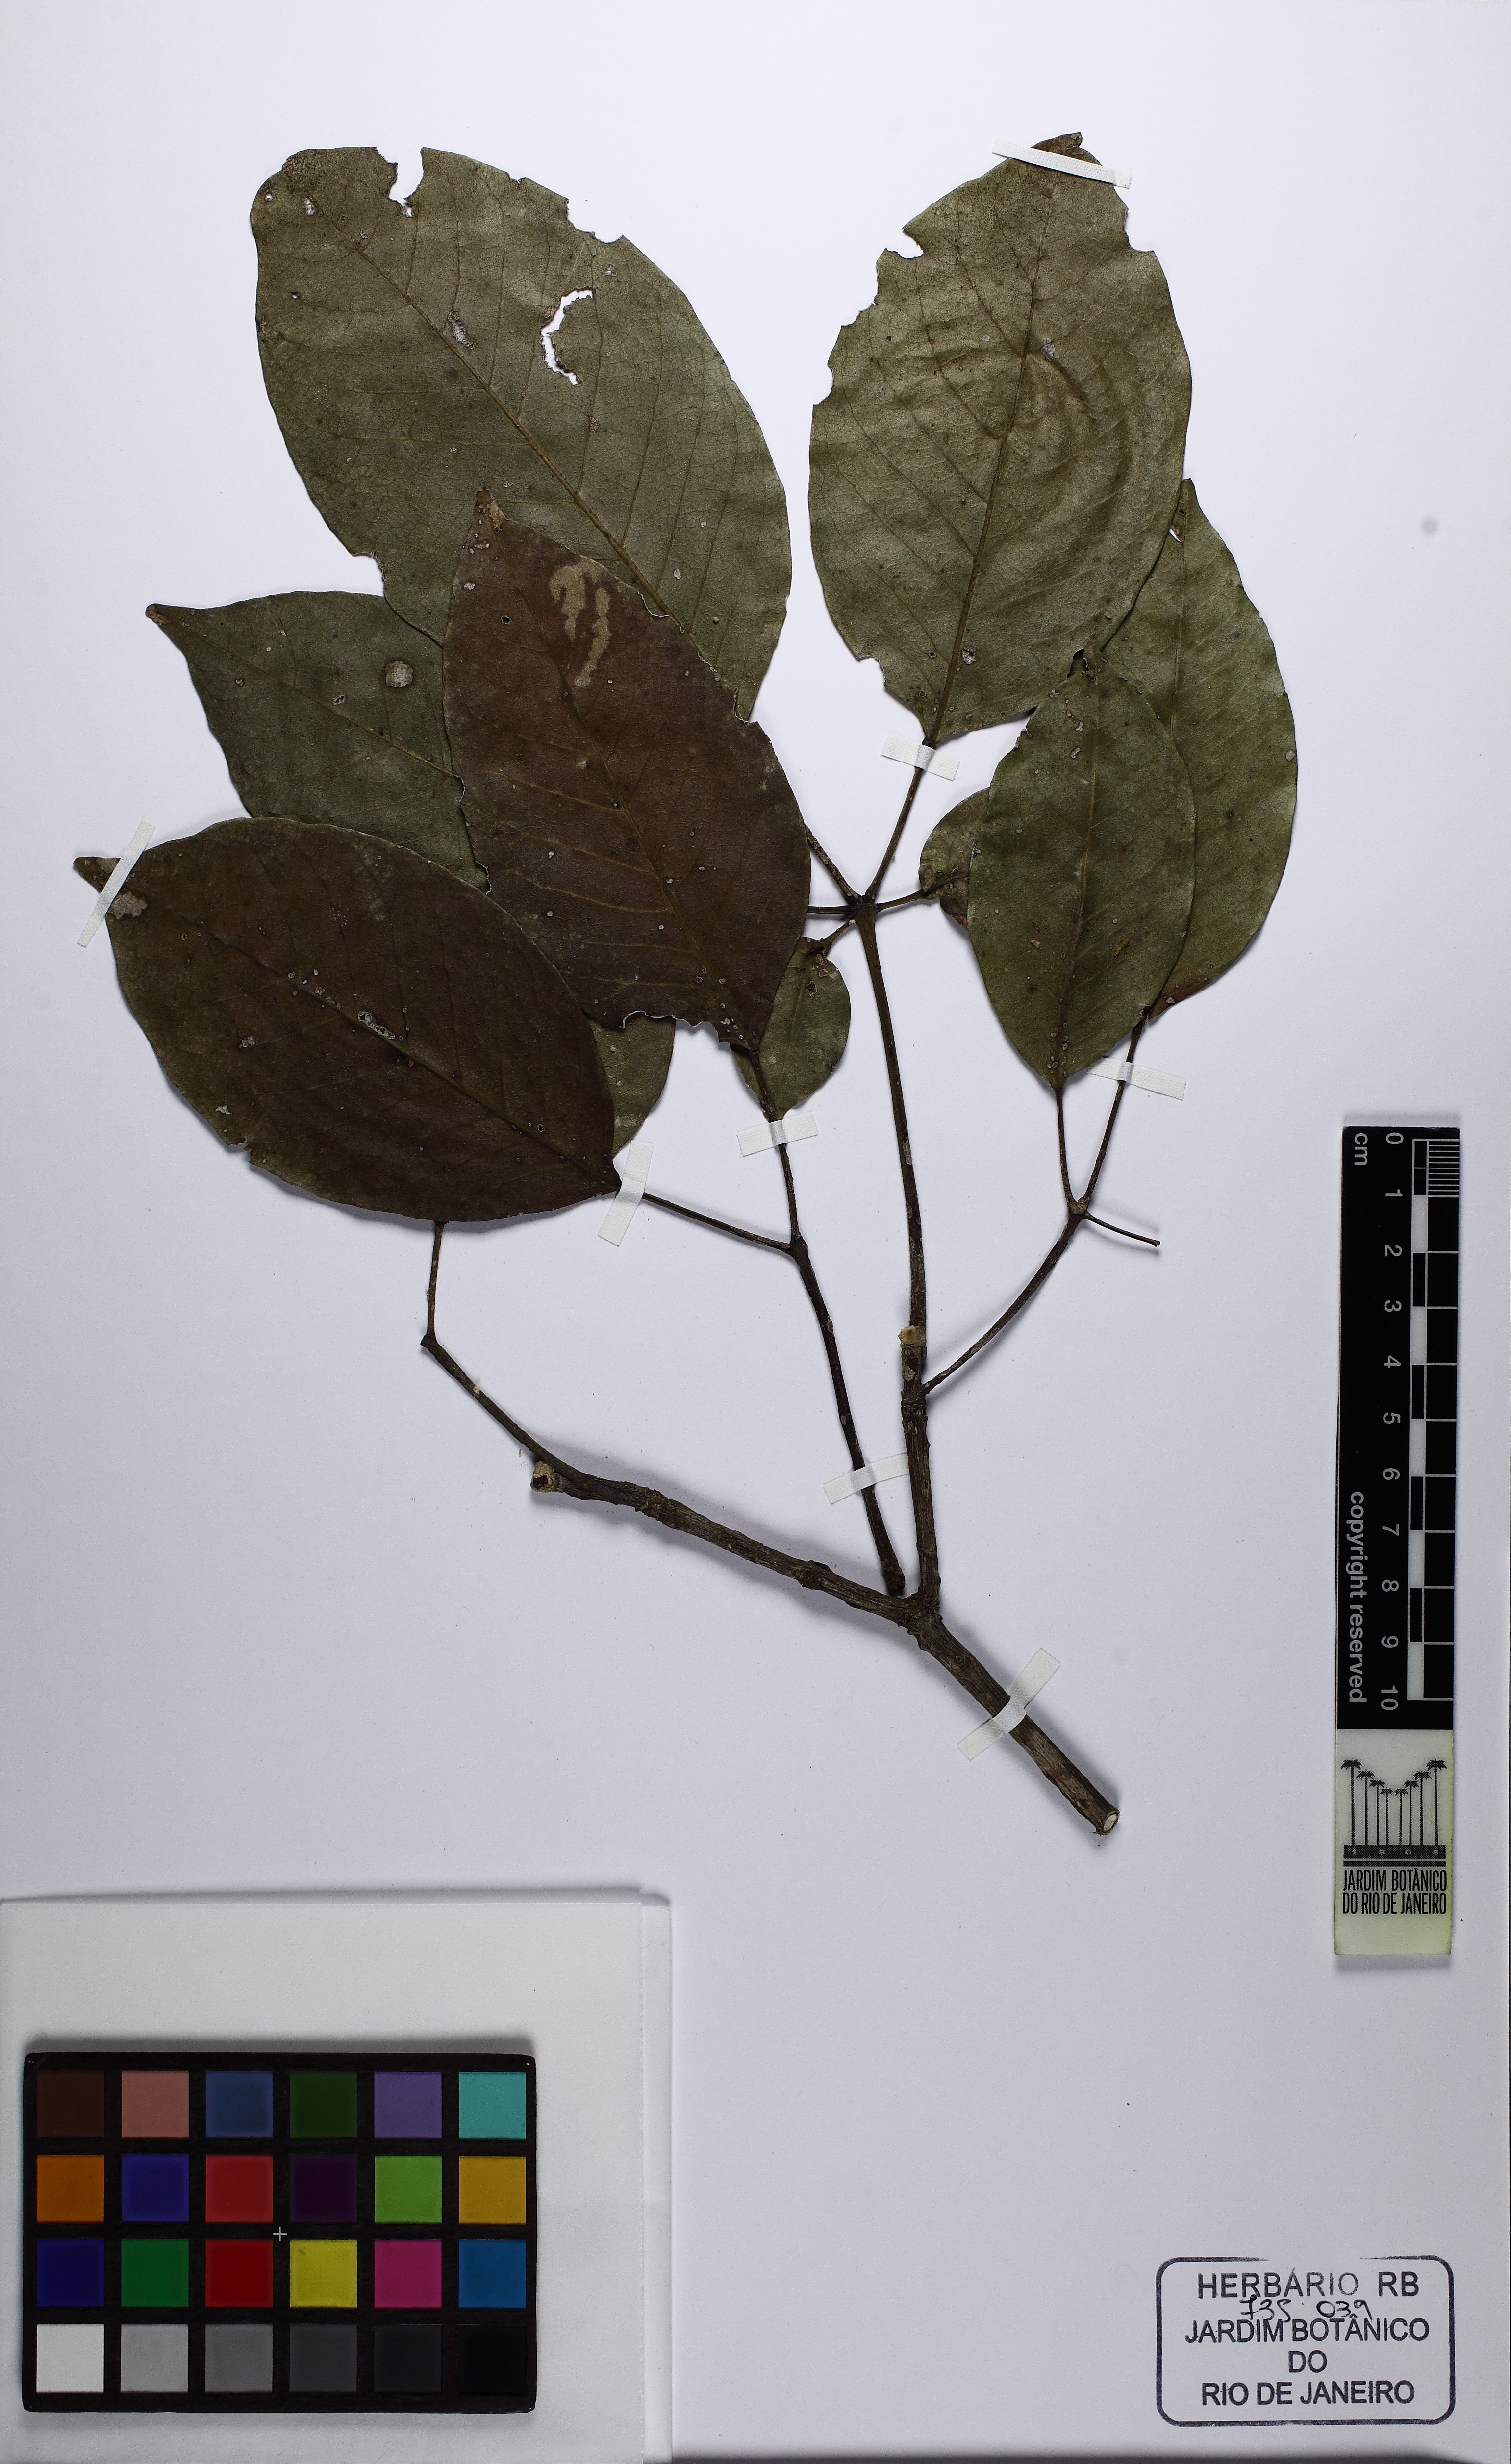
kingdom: Plantae
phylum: Tracheophyta
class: Magnoliopsida
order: Lamiales
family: Bignoniaceae
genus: Handroanthus
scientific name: Handroanthus impetiginosum
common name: Pink trumpet tree
